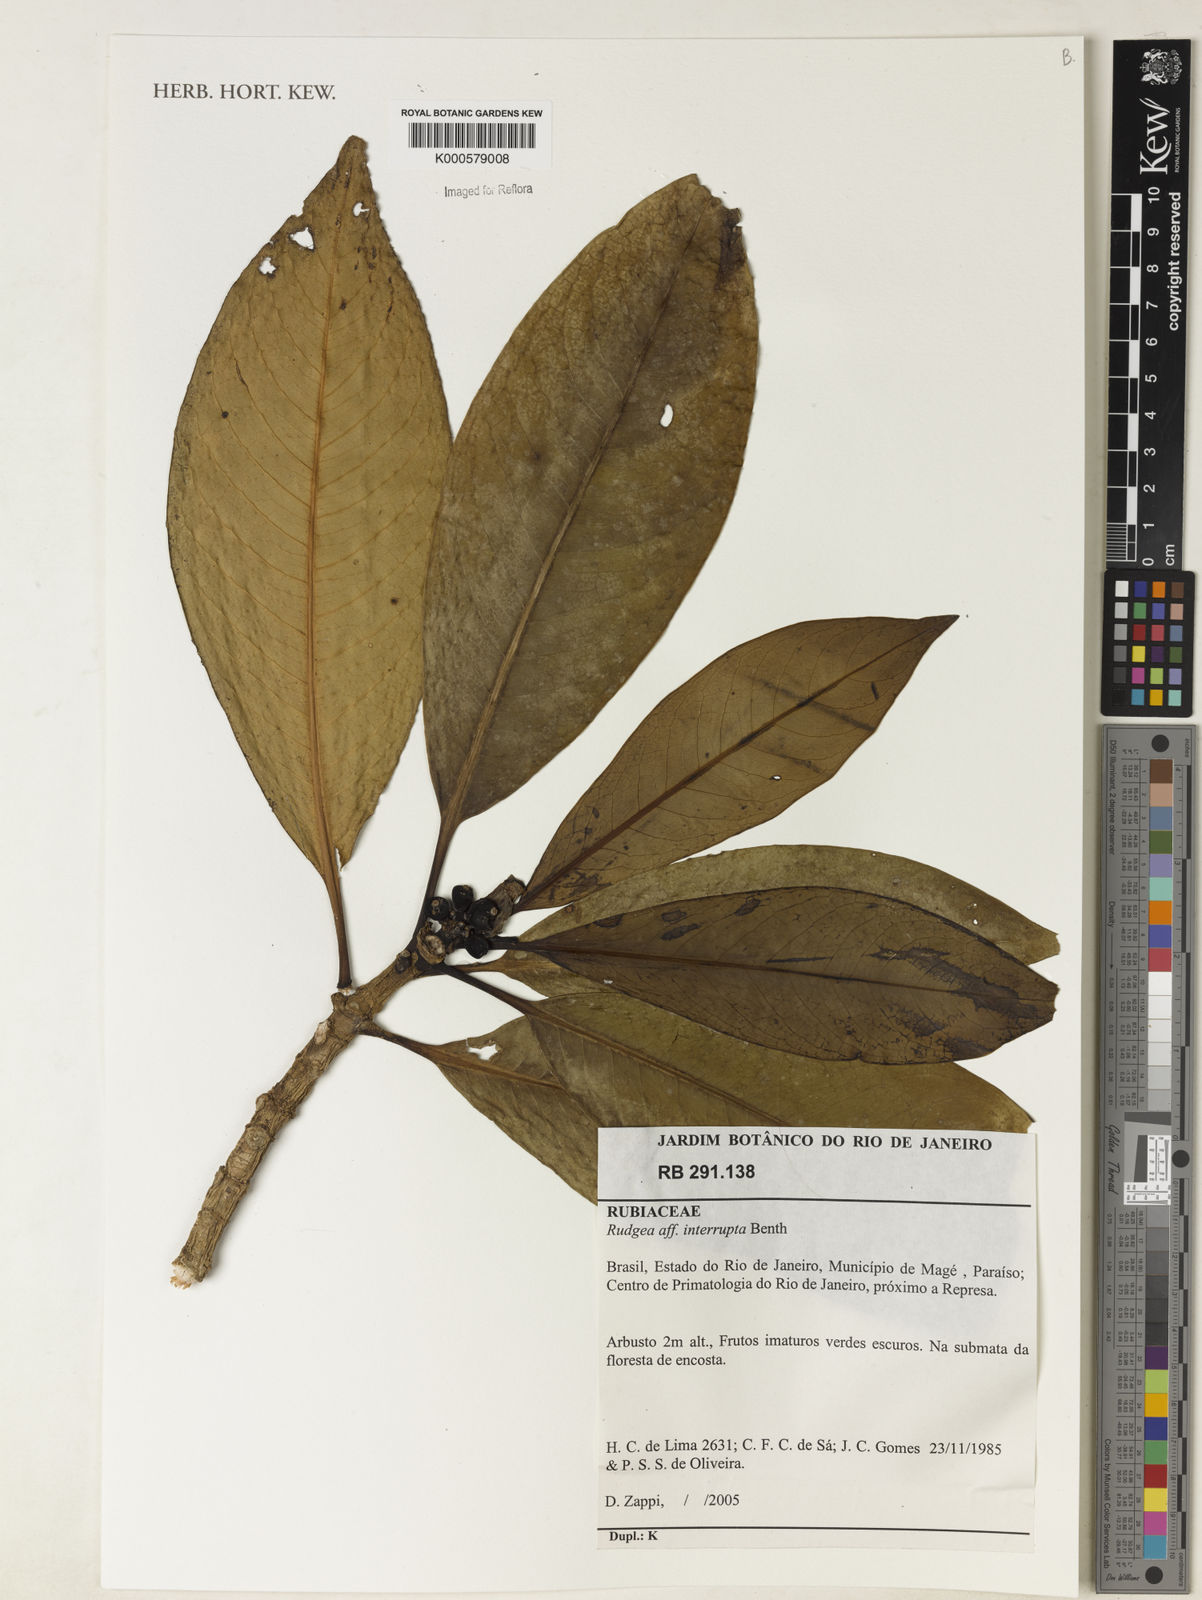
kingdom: Plantae
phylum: Tracheophyta
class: Magnoliopsida
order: Gentianales
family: Rubiaceae
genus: Rudgea
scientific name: Rudgea interrupta
